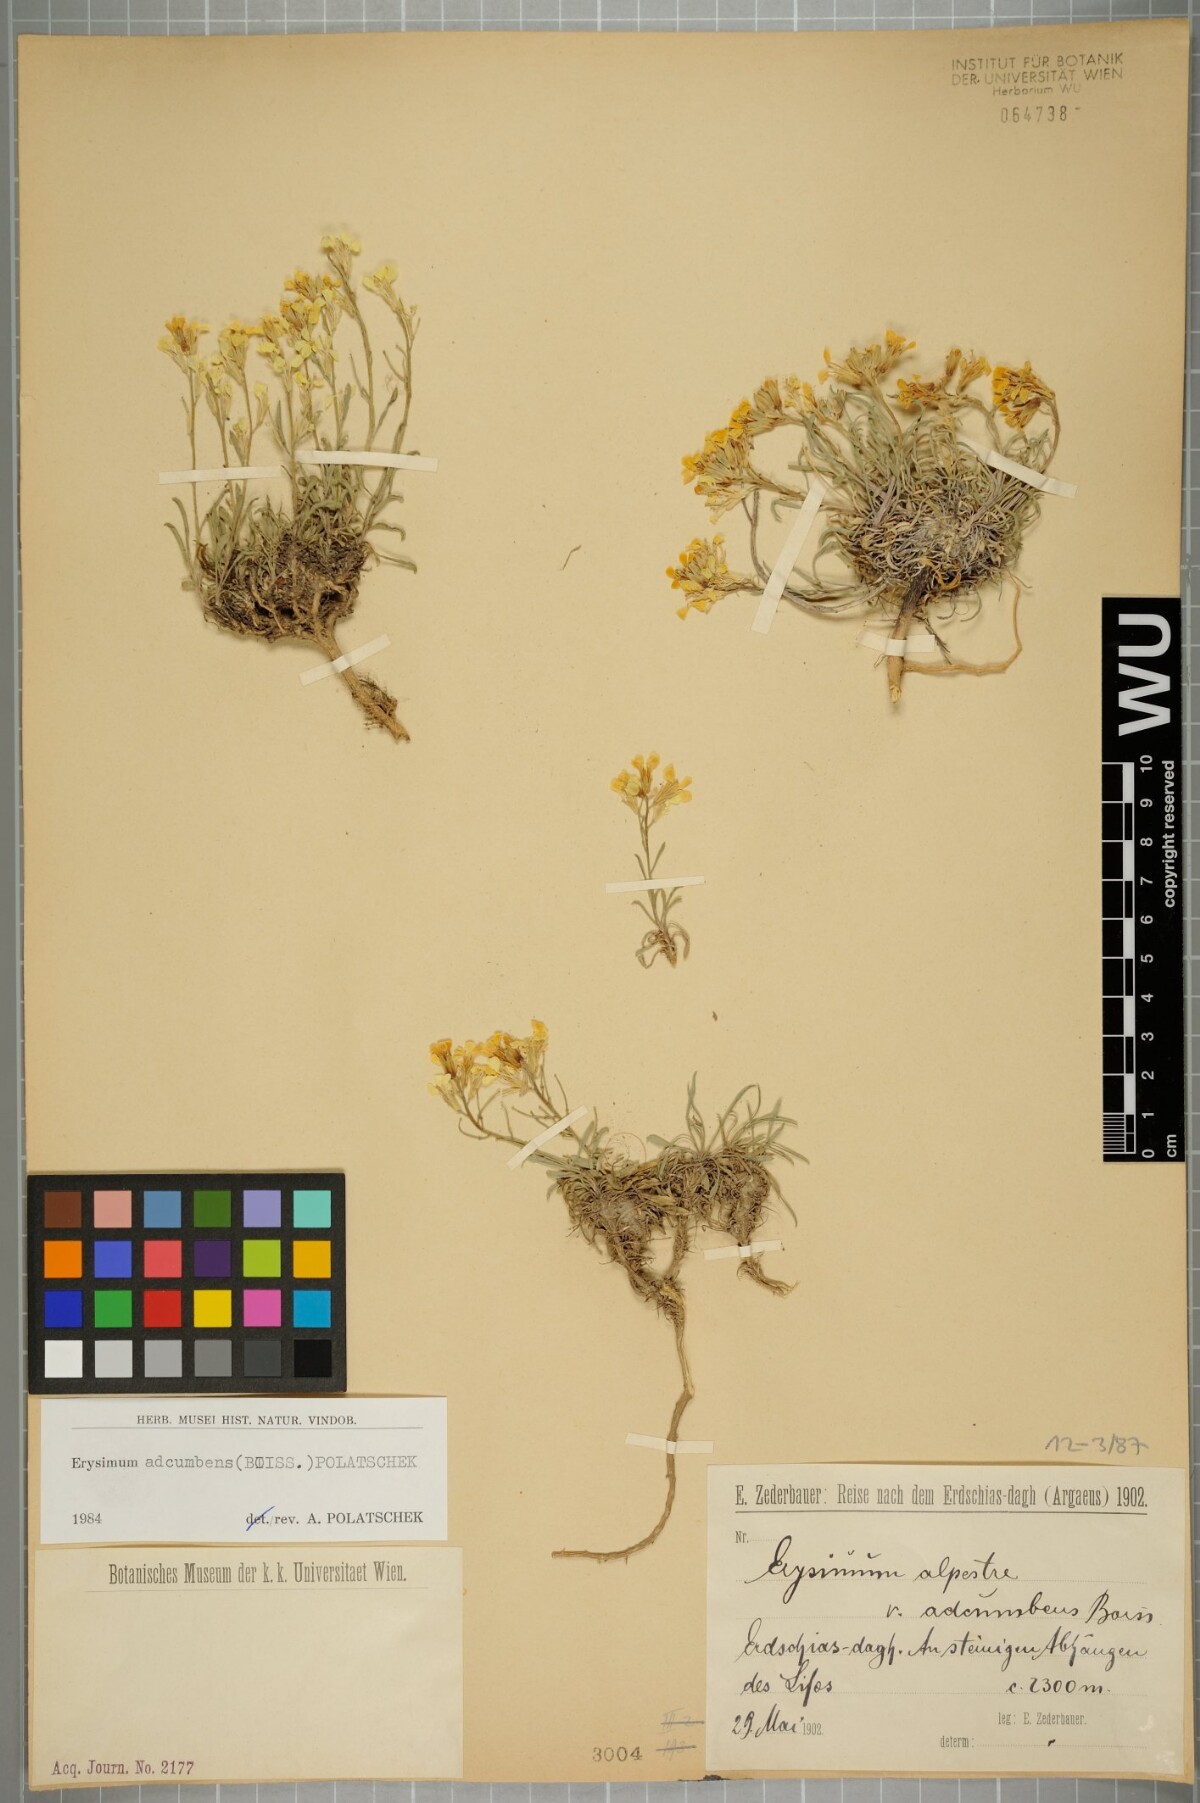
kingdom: Plantae
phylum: Tracheophyta
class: Magnoliopsida
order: Brassicales
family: Brassicaceae
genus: Erysimum
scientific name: Erysimum adcumbens
